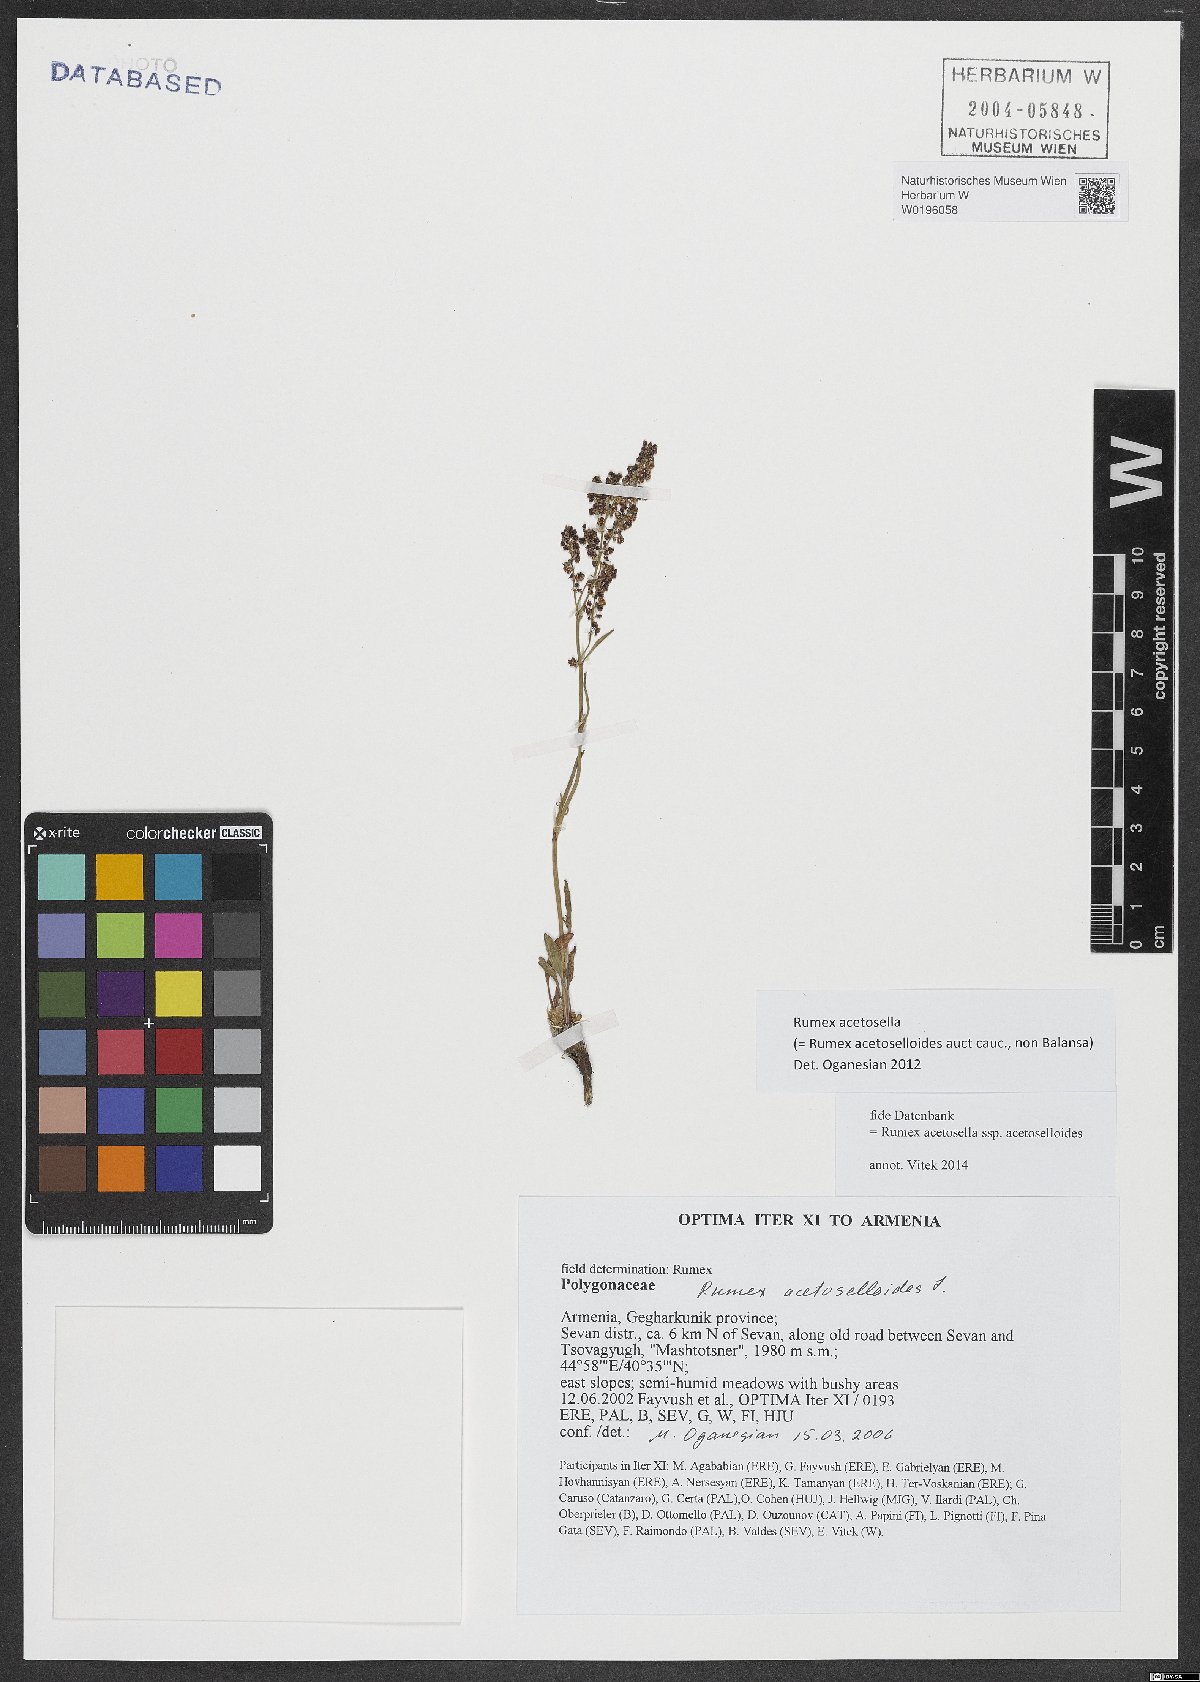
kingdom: Plantae
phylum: Tracheophyta
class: Magnoliopsida
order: Caryophyllales
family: Polygonaceae
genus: Rumex
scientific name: Rumex acetosella
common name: Common sheep sorrel
